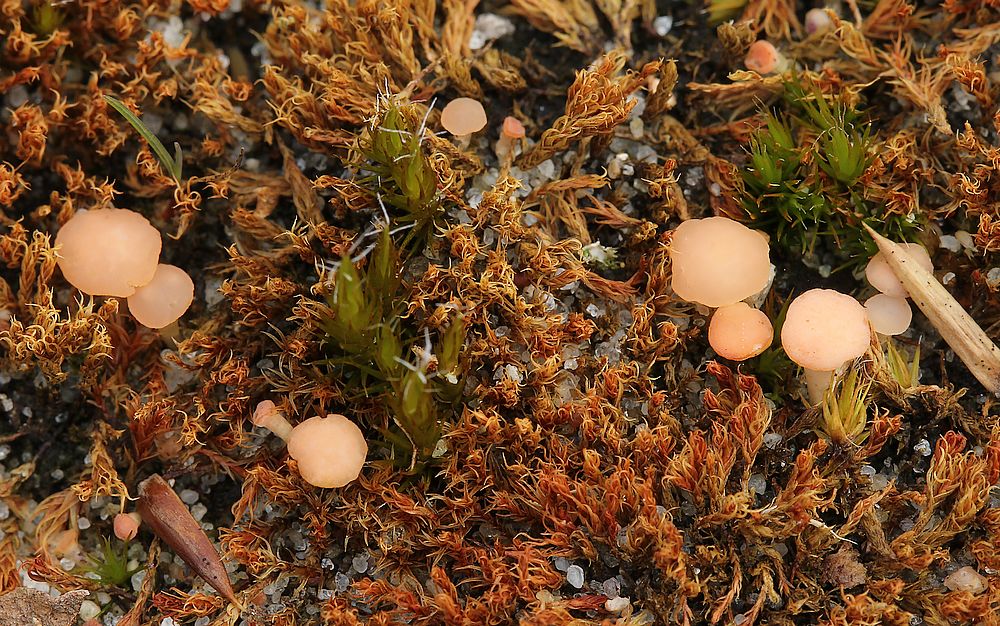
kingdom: Fungi
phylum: Ascomycota
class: Leotiomycetes
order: Helotiales
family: Hyaloscyphaceae
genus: Roseodiscus
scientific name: Roseodiscus formosus
